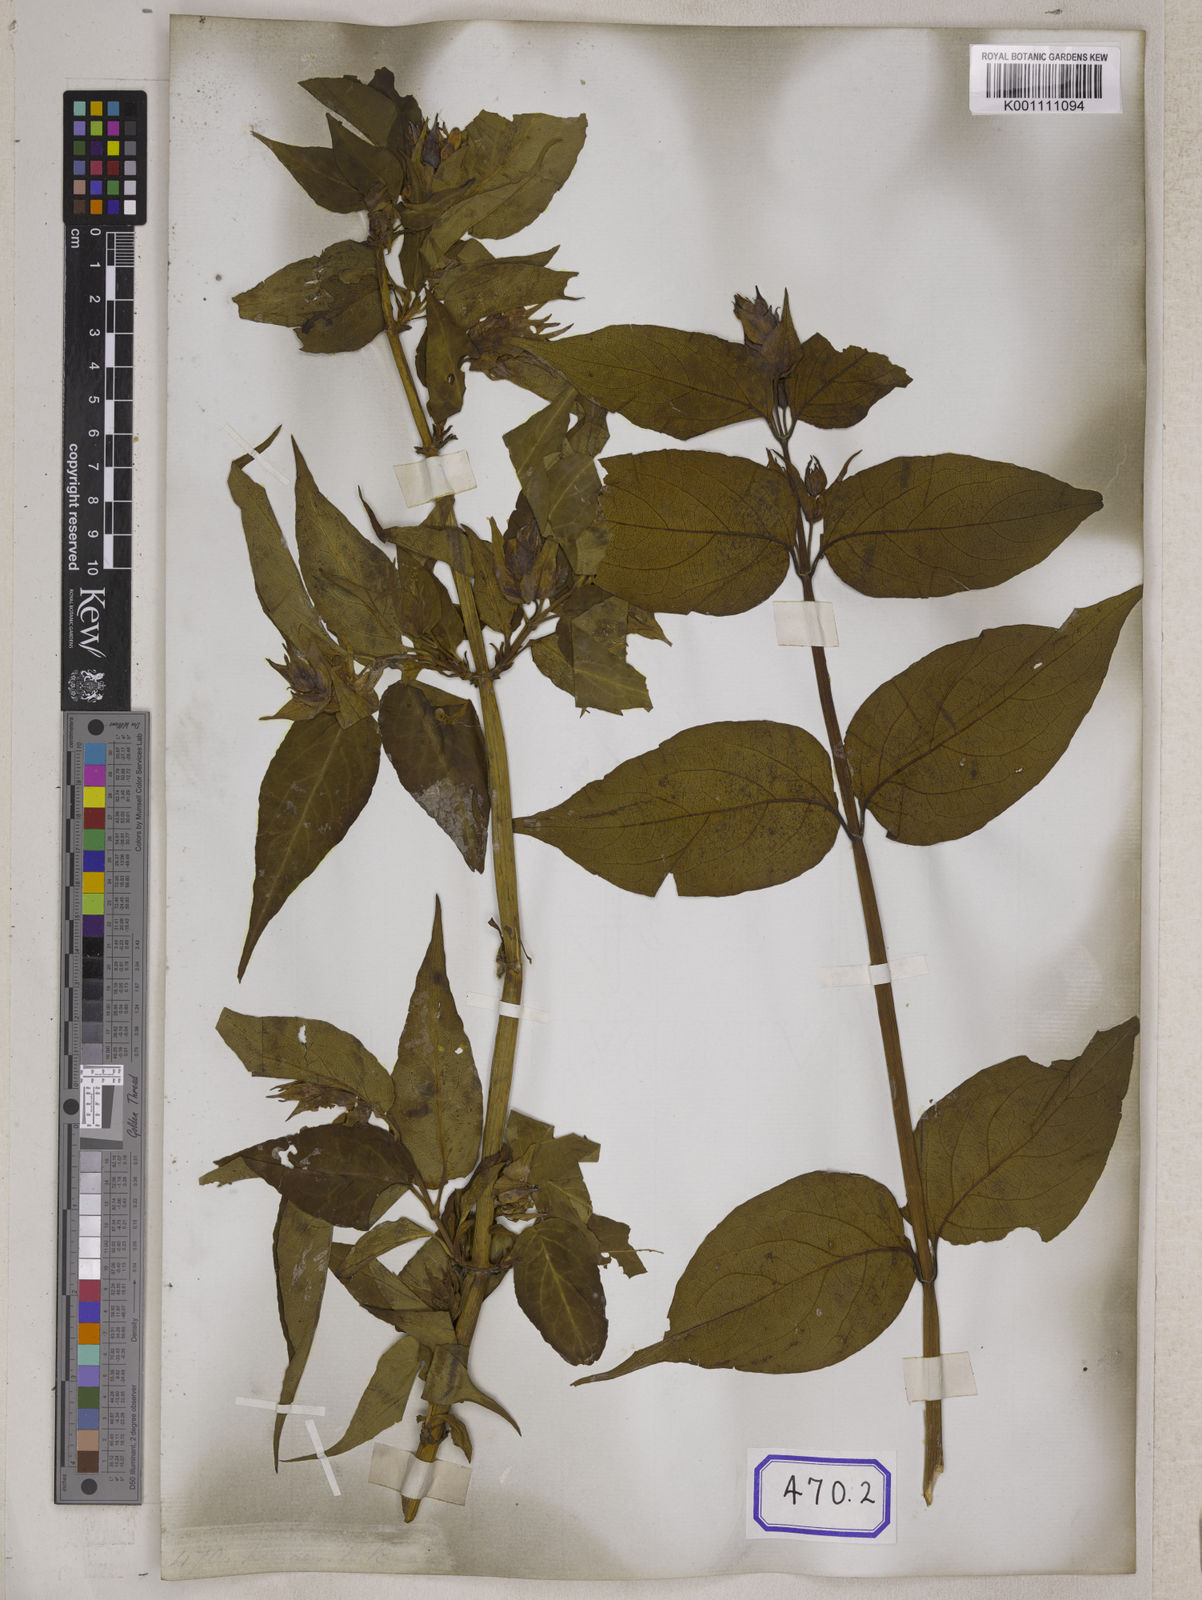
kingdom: Plantae
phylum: Tracheophyta
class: Magnoliopsida
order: Dipsacales
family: Caprifoliaceae
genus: Leycesteria
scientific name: Leycesteria formosa
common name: Himalayan honeysuckle
